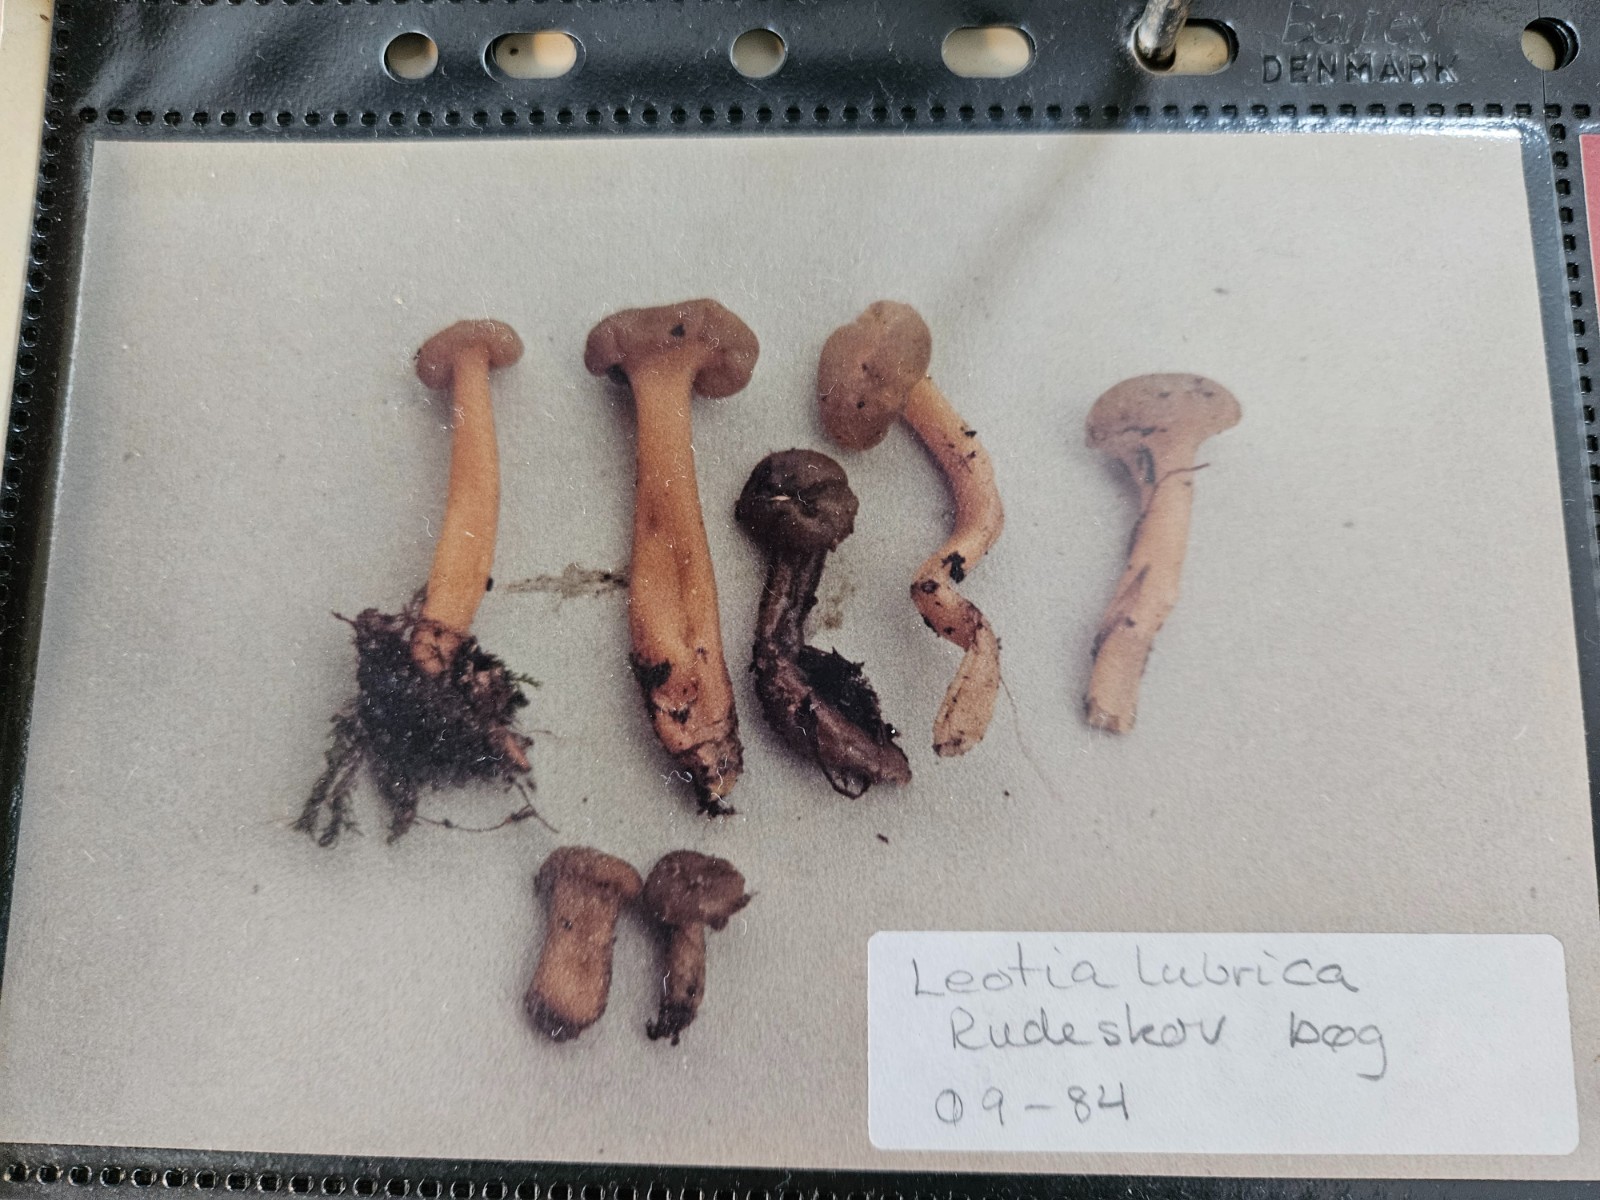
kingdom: Fungi
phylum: Ascomycota
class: Leotiomycetes
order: Leotiales
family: Leotiaceae
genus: Leotia
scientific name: Leotia lubrica
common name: ravsvamp
